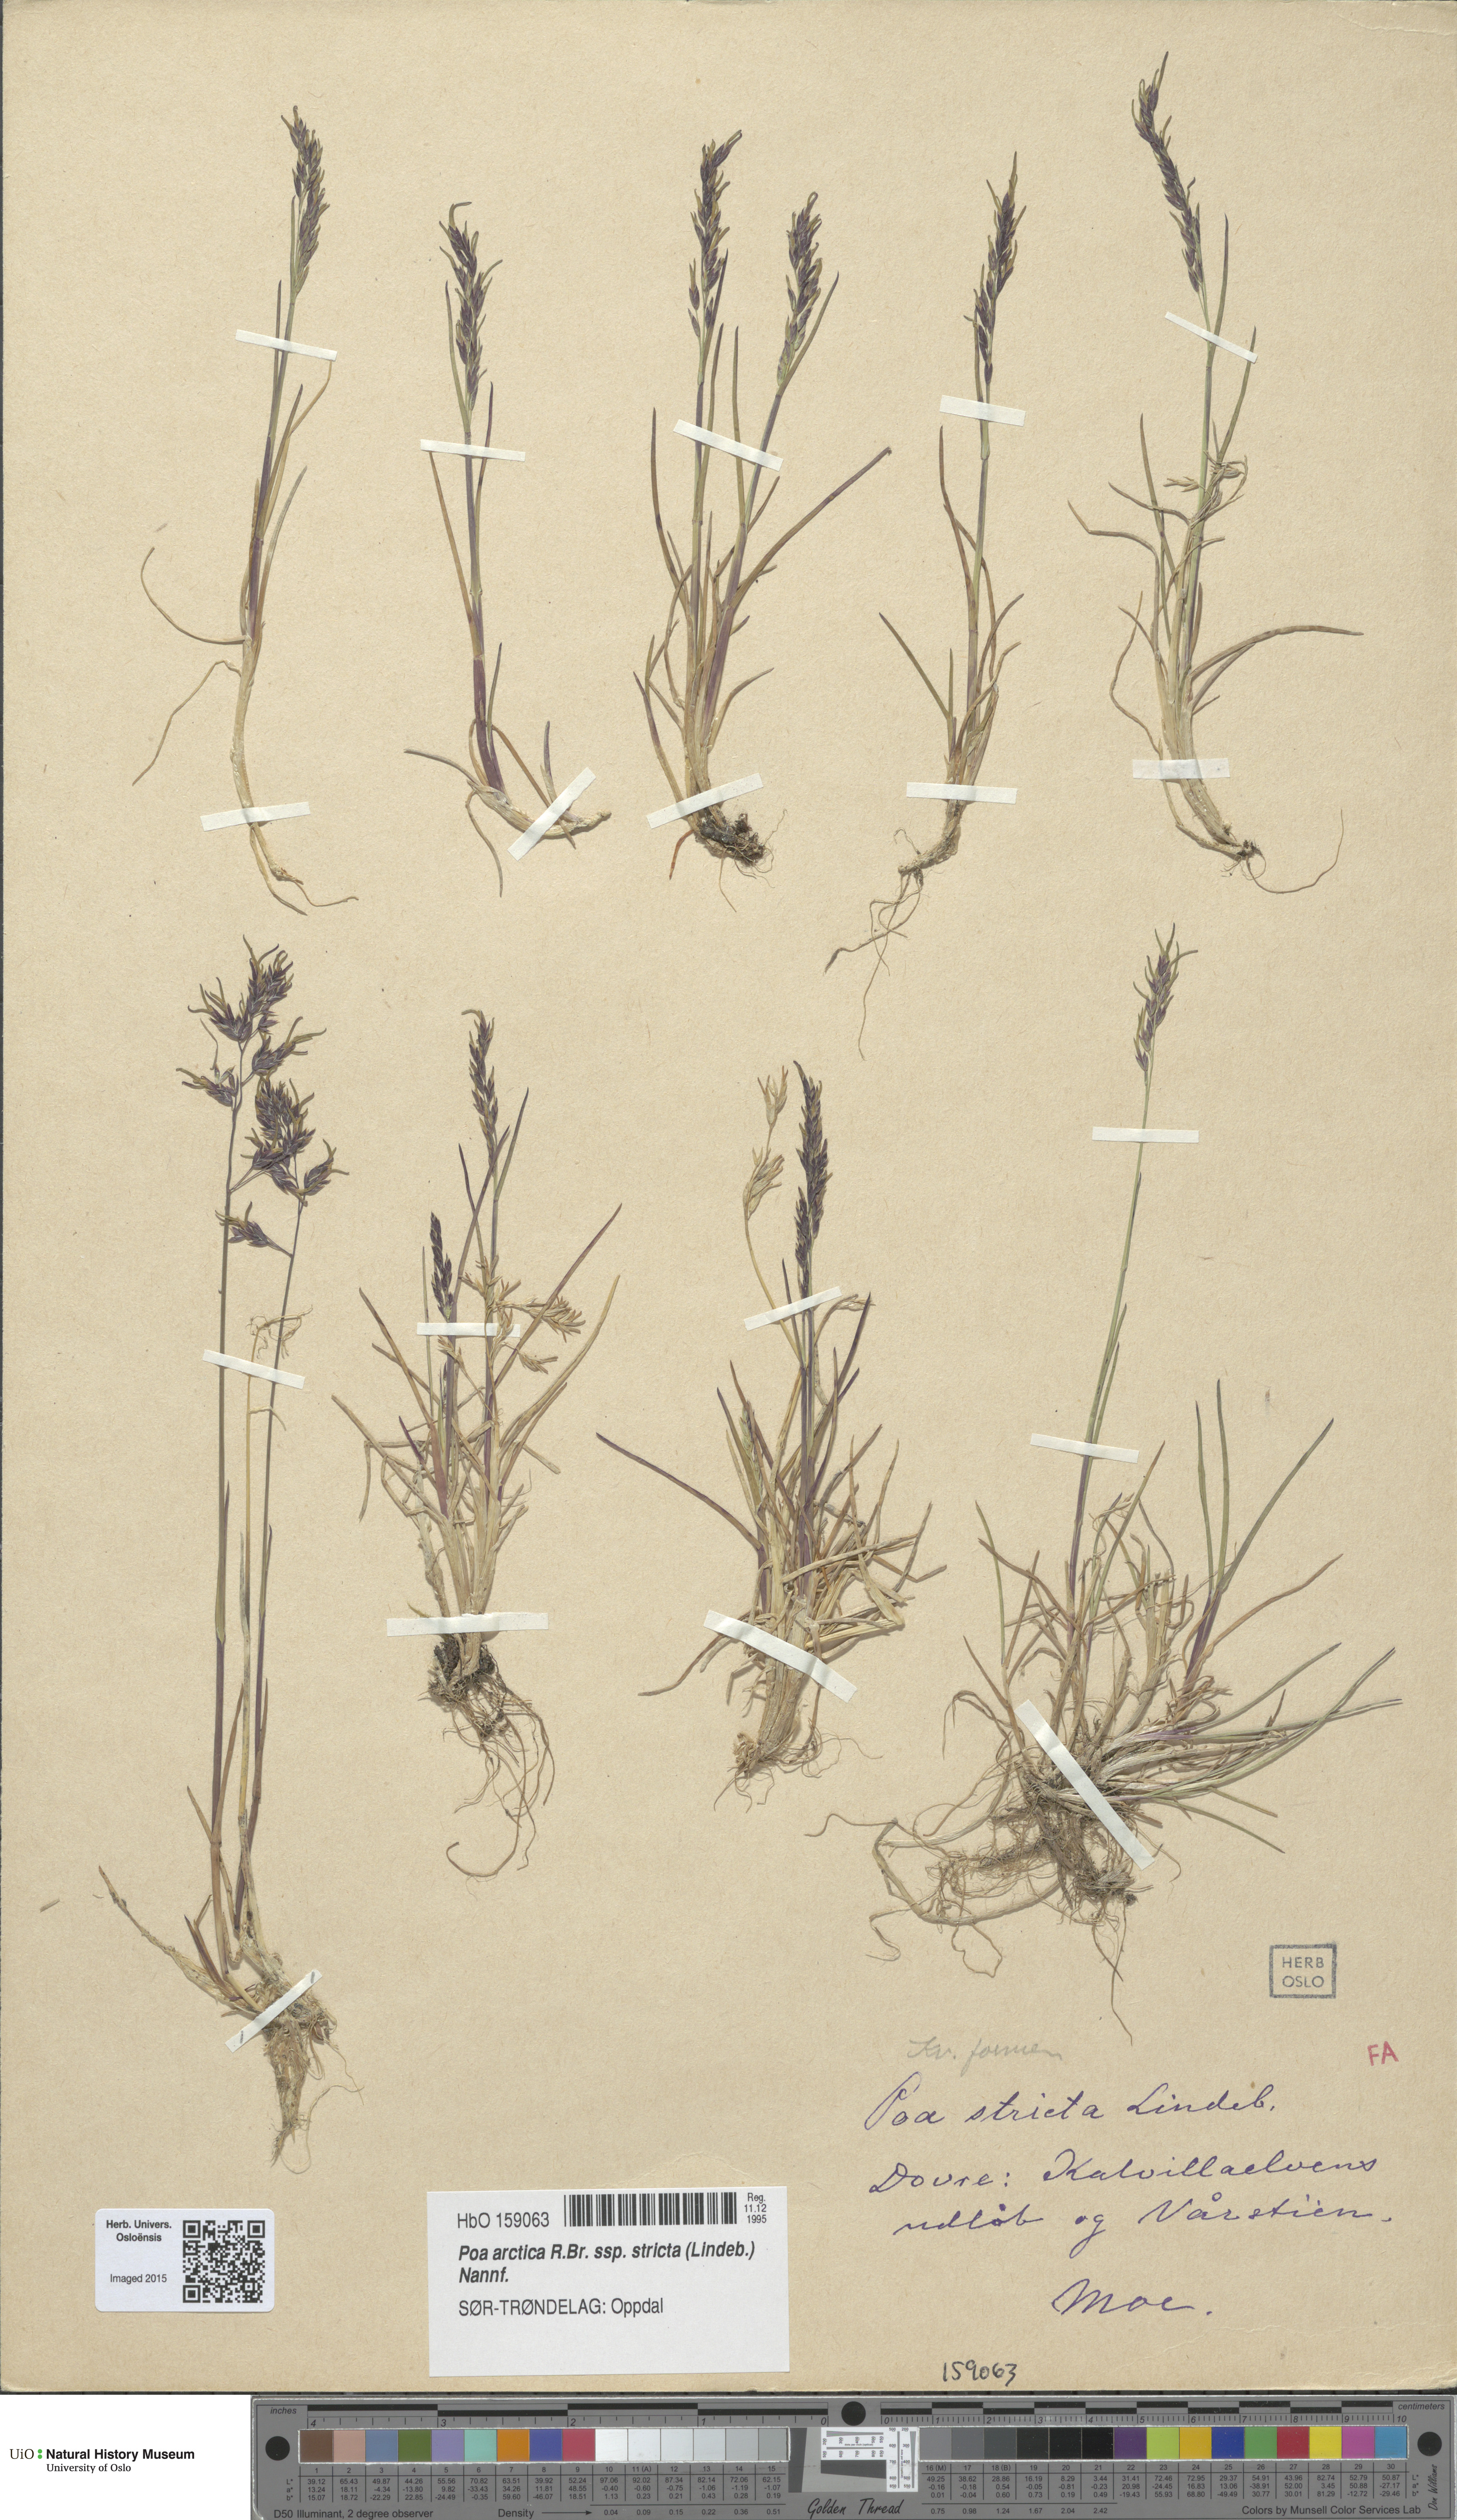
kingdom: Plantae
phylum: Tracheophyta
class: Liliopsida
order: Poales
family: Poaceae
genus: Poa
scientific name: Poa lindebergii
